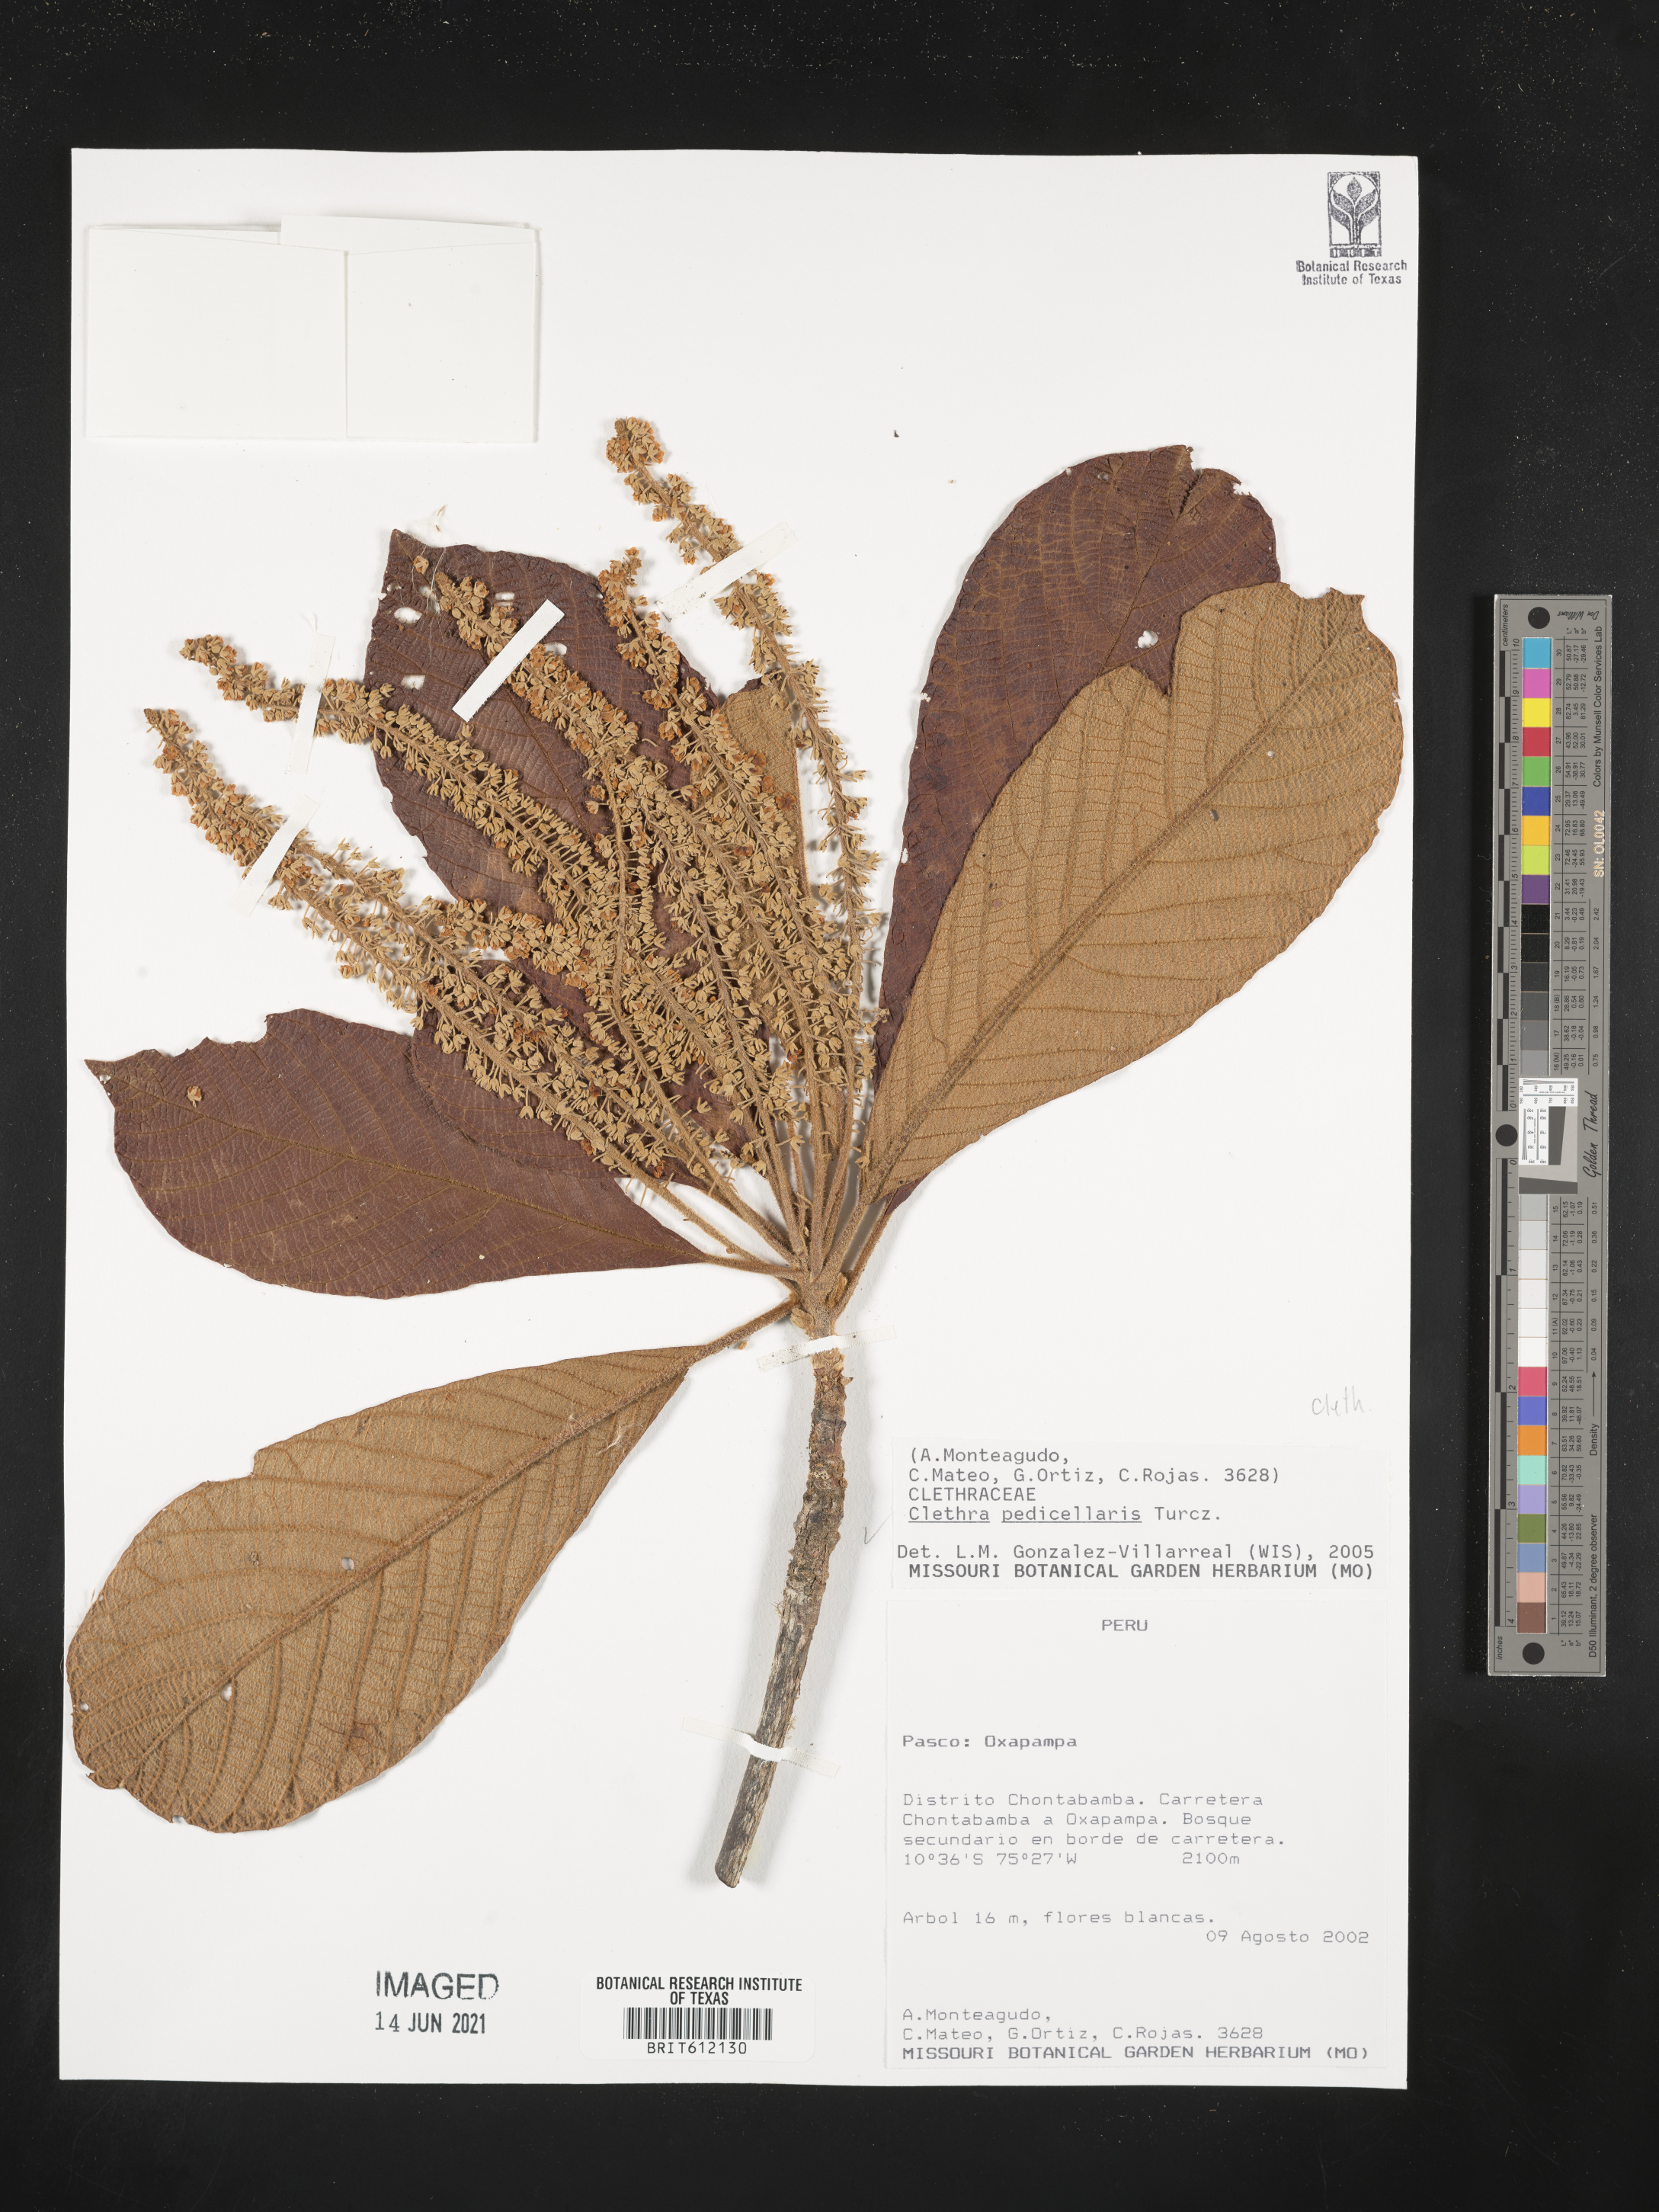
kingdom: Plantae
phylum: Tracheophyta
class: Magnoliopsida
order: Ericales
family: Clethraceae
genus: Clethra
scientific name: Clethra pedicellaris
